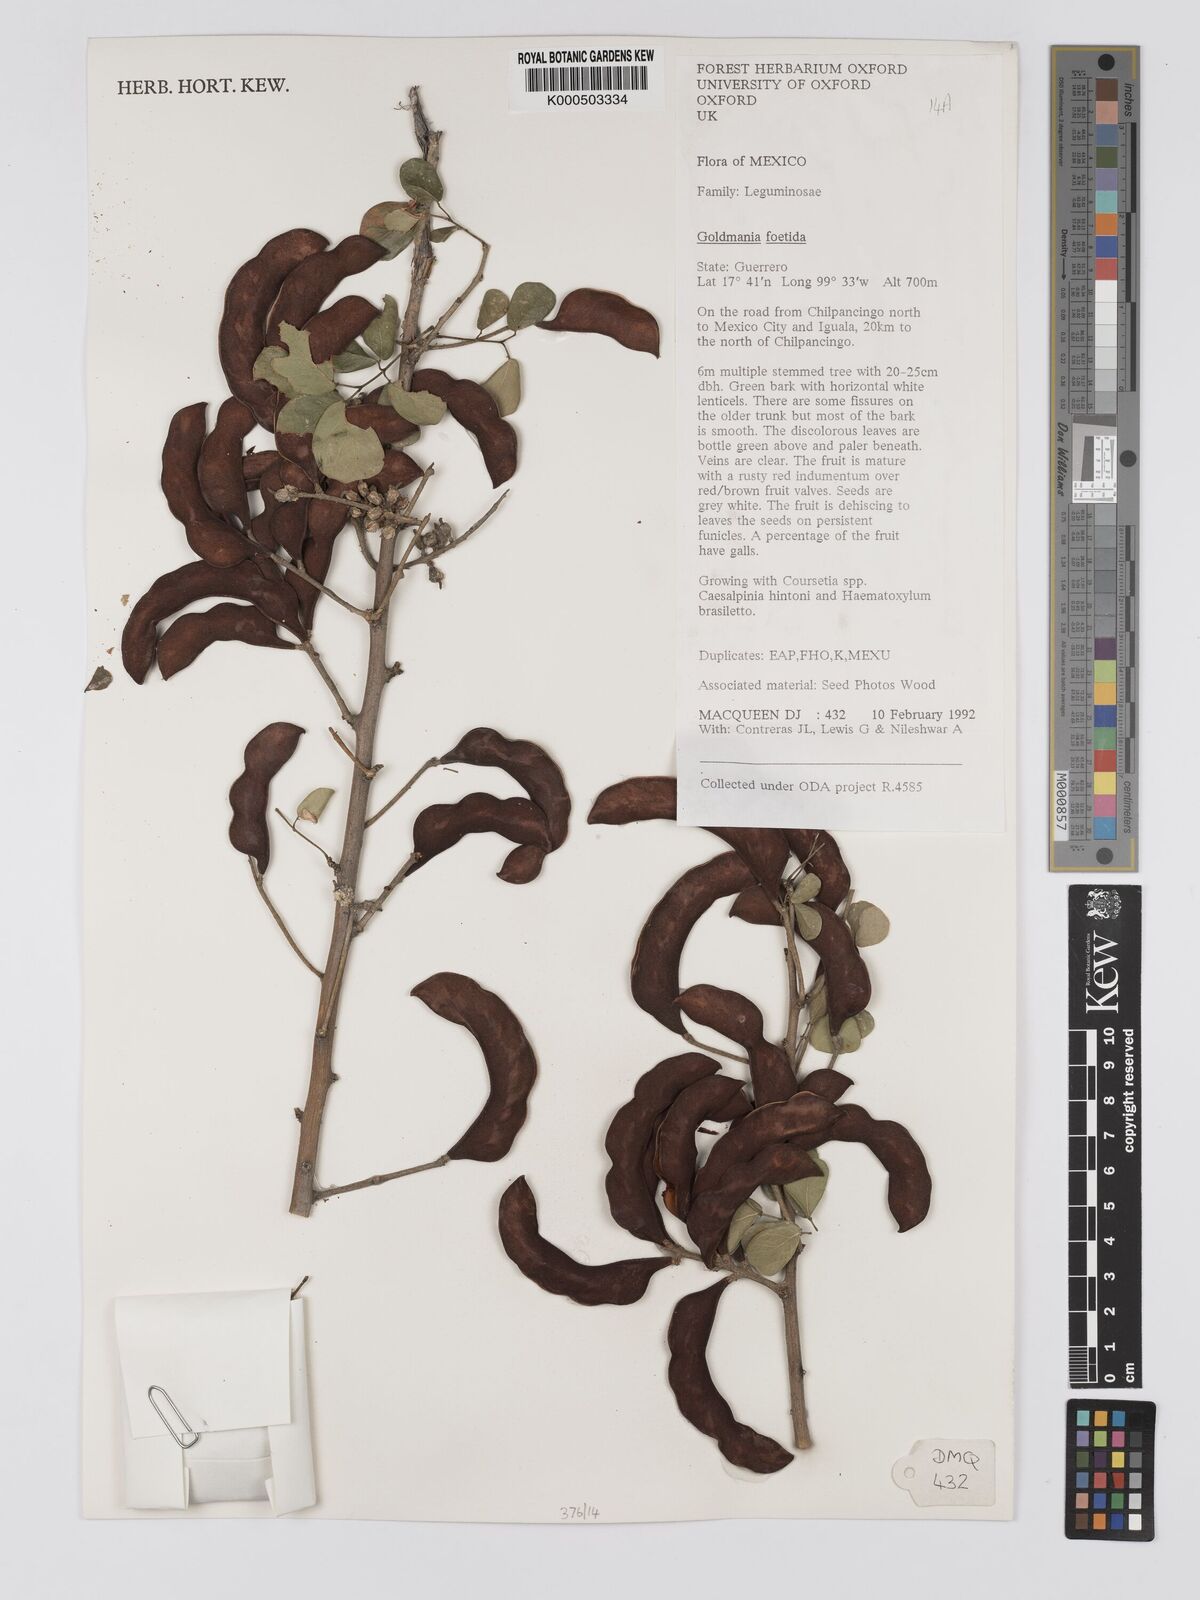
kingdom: Plantae
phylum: Tracheophyta
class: Magnoliopsida
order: Fabales
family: Fabaceae
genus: Microlobius
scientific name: Microlobius foetidus
